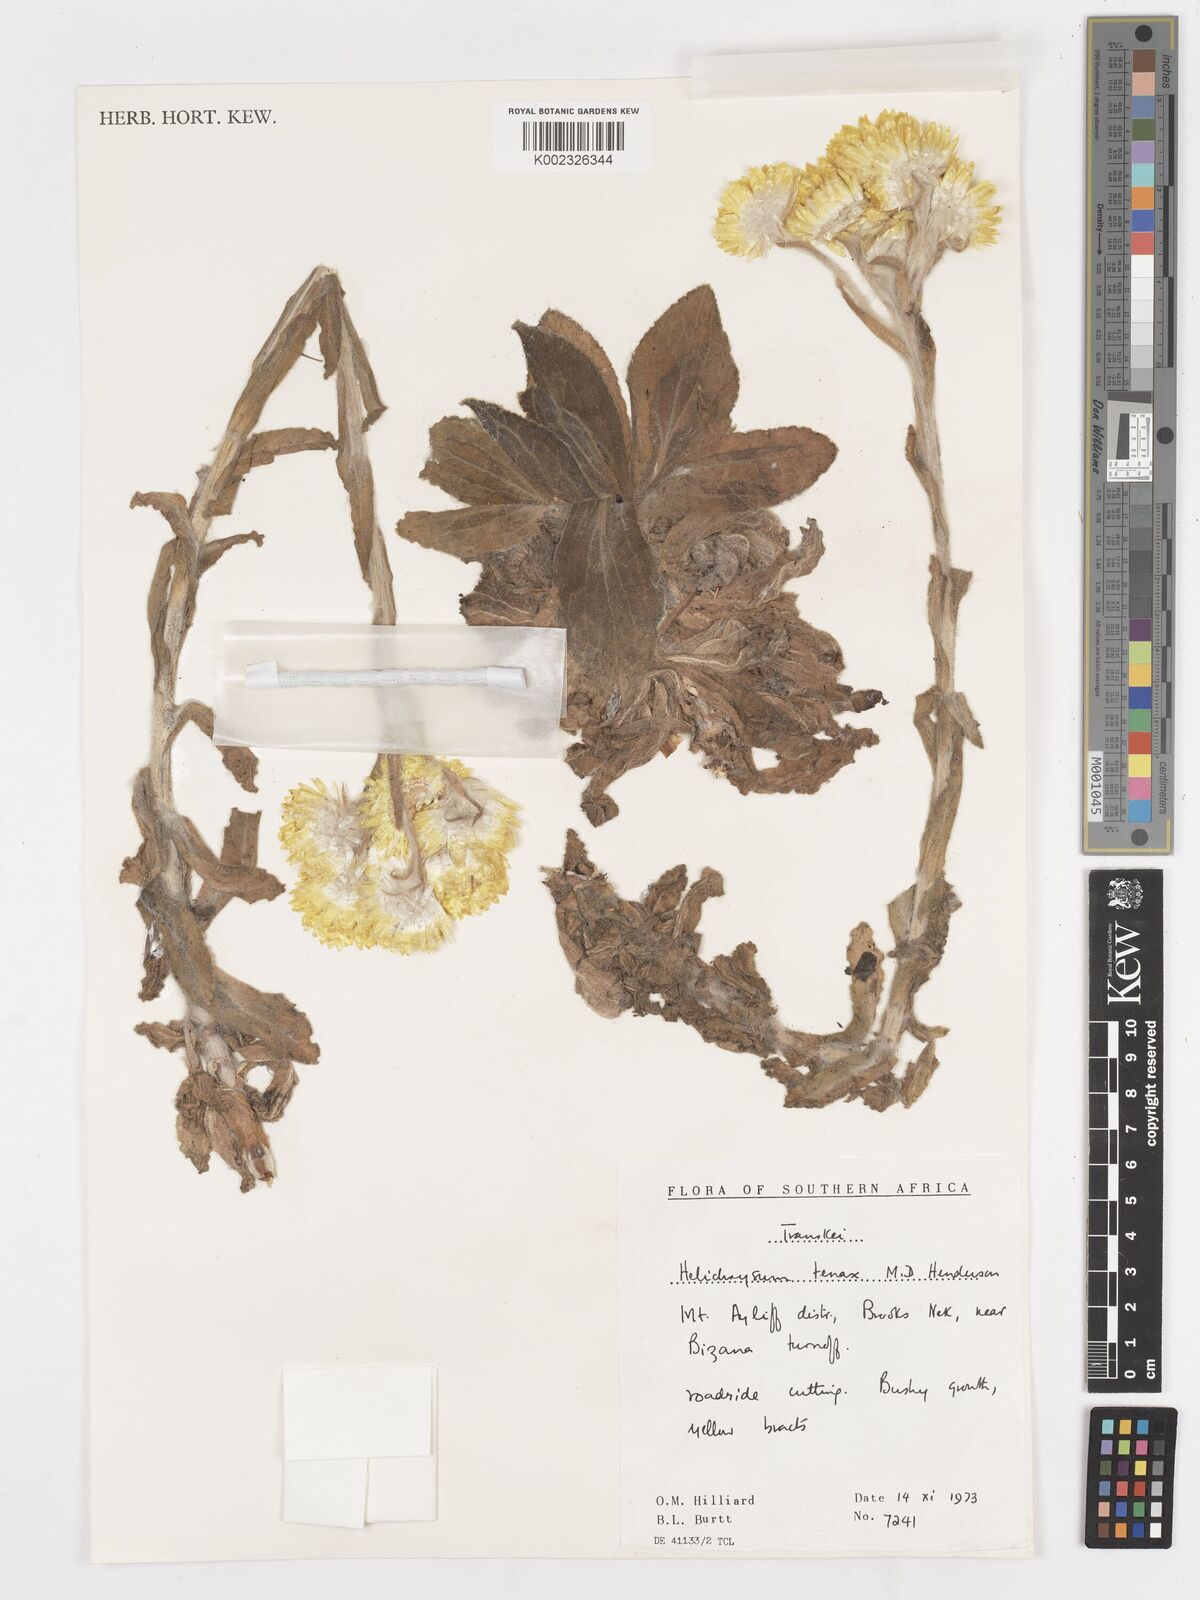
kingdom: Plantae
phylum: Tracheophyta
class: Magnoliopsida
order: Asterales
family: Asteraceae
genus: Helichrysum
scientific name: Helichrysum tenax
